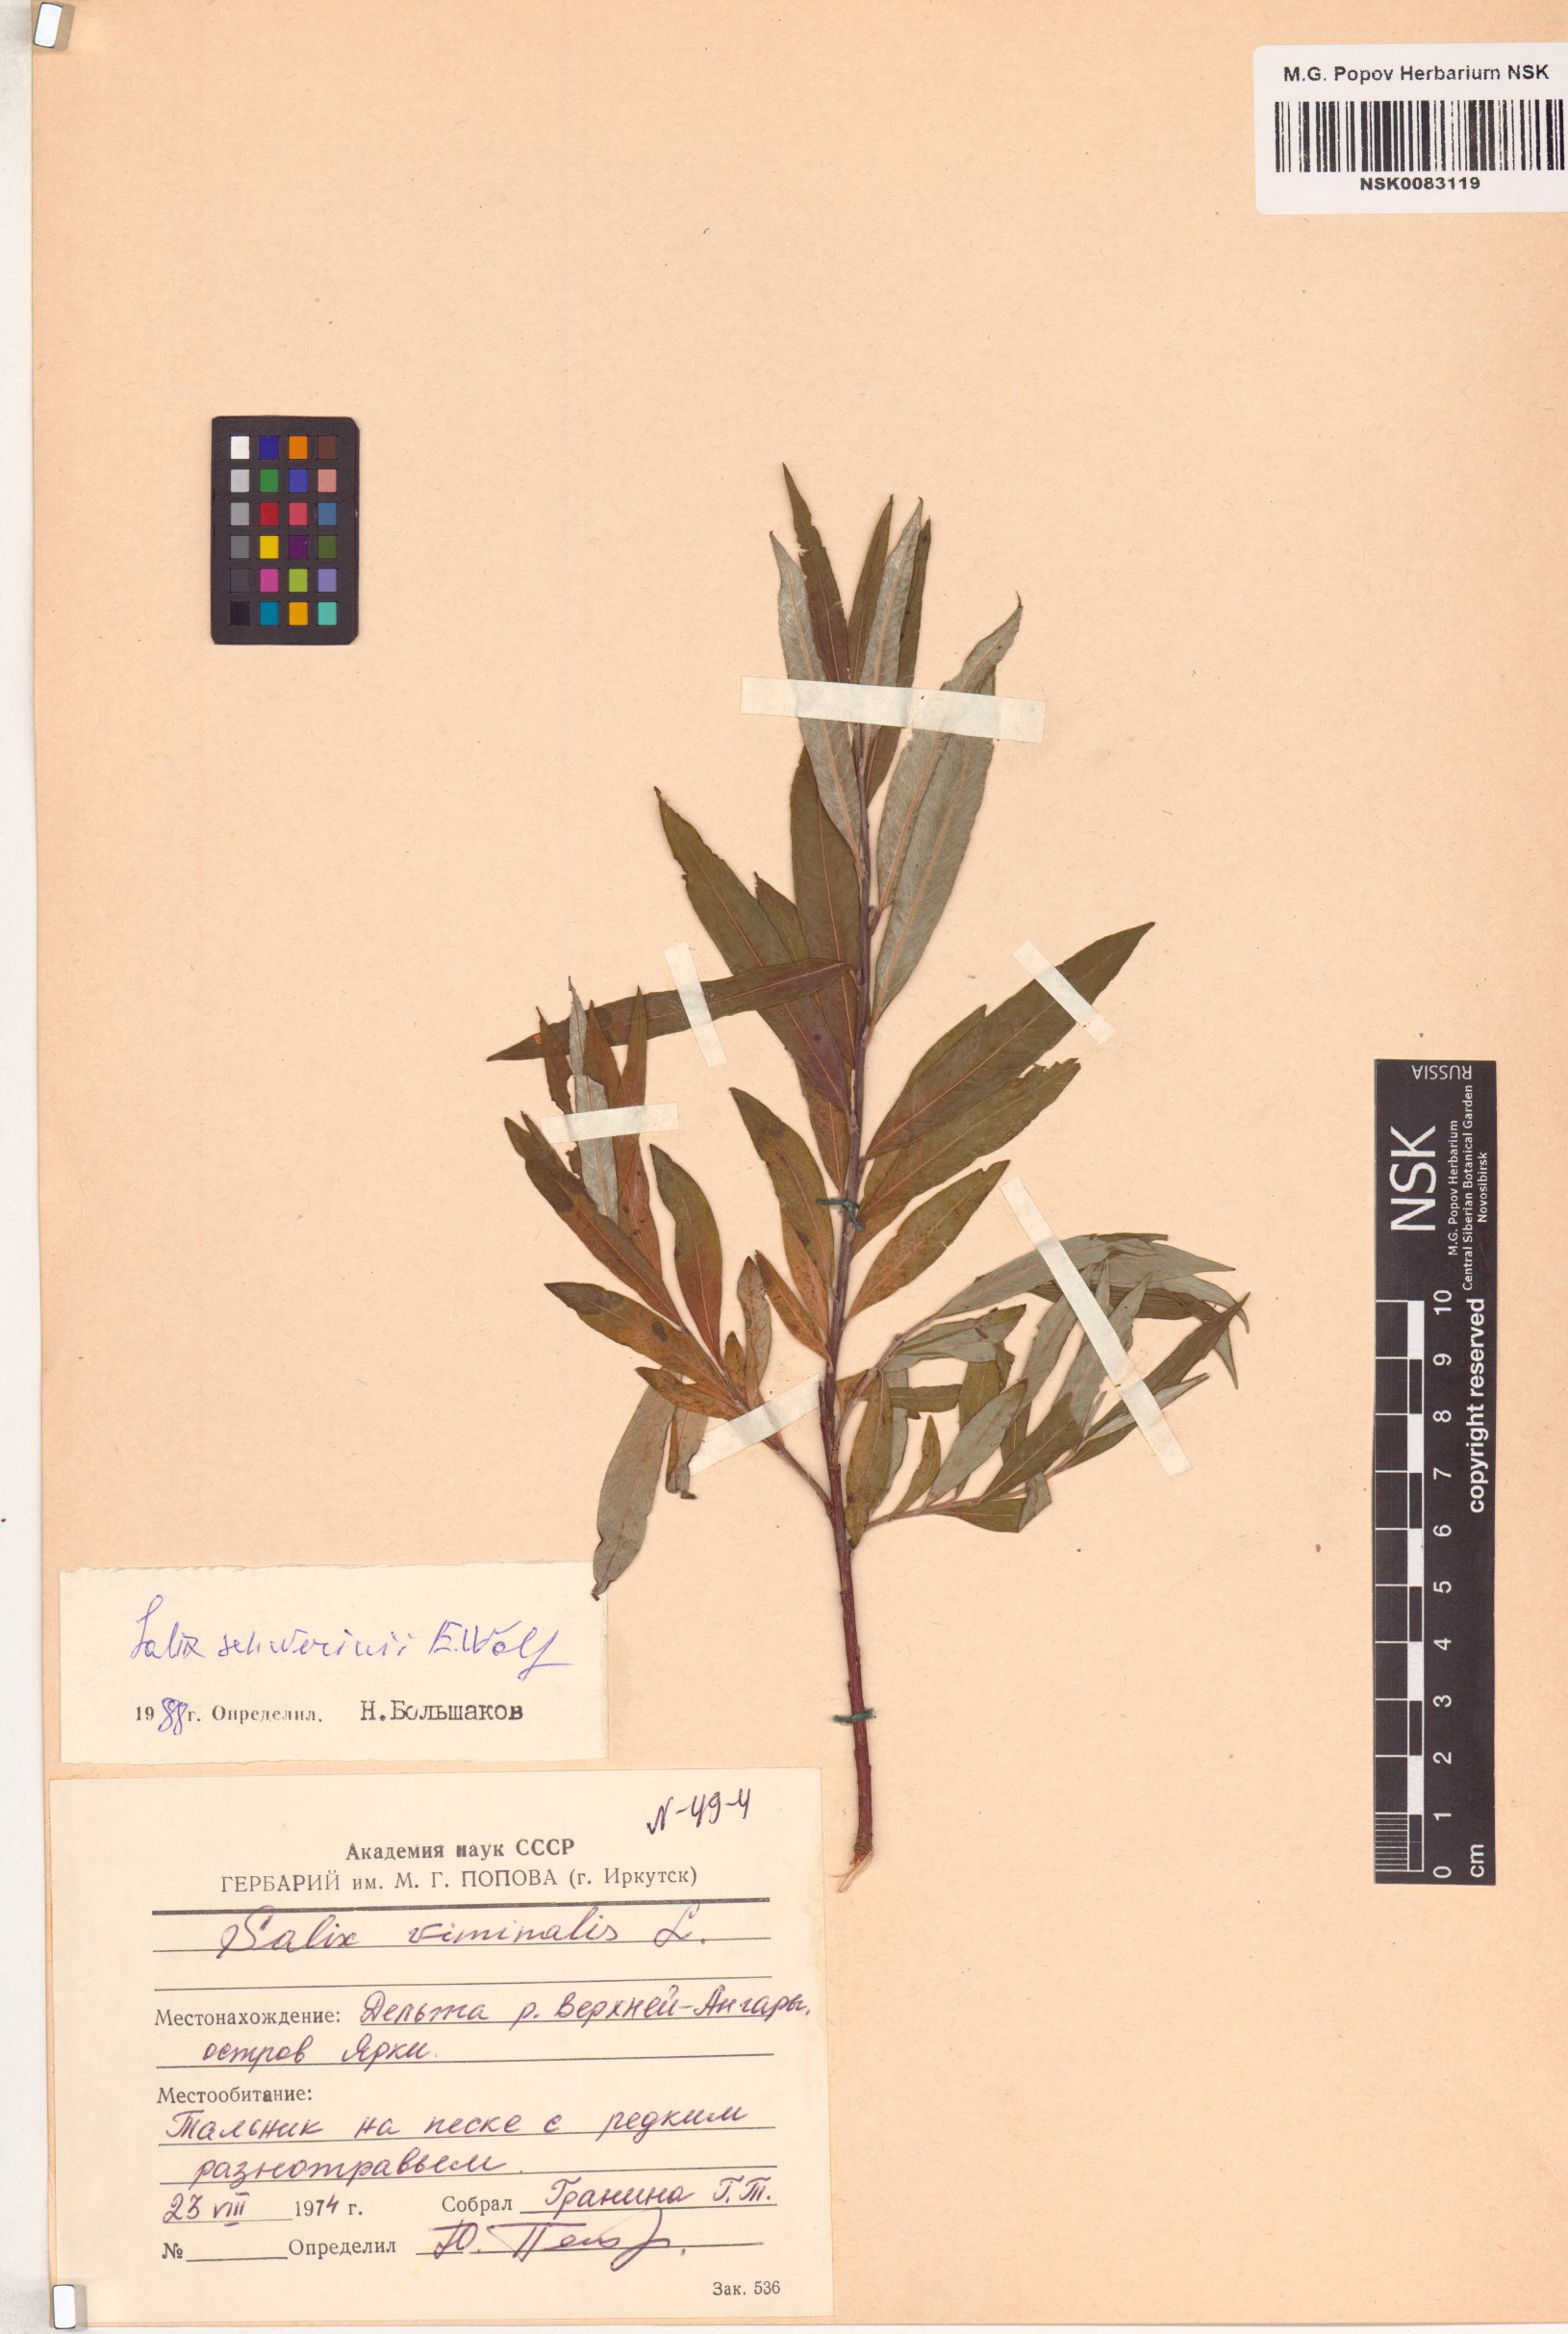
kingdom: Plantae
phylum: Tracheophyta
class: Magnoliopsida
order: Malpighiales
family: Salicaceae
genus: Salix
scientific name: Salix schwerinii
